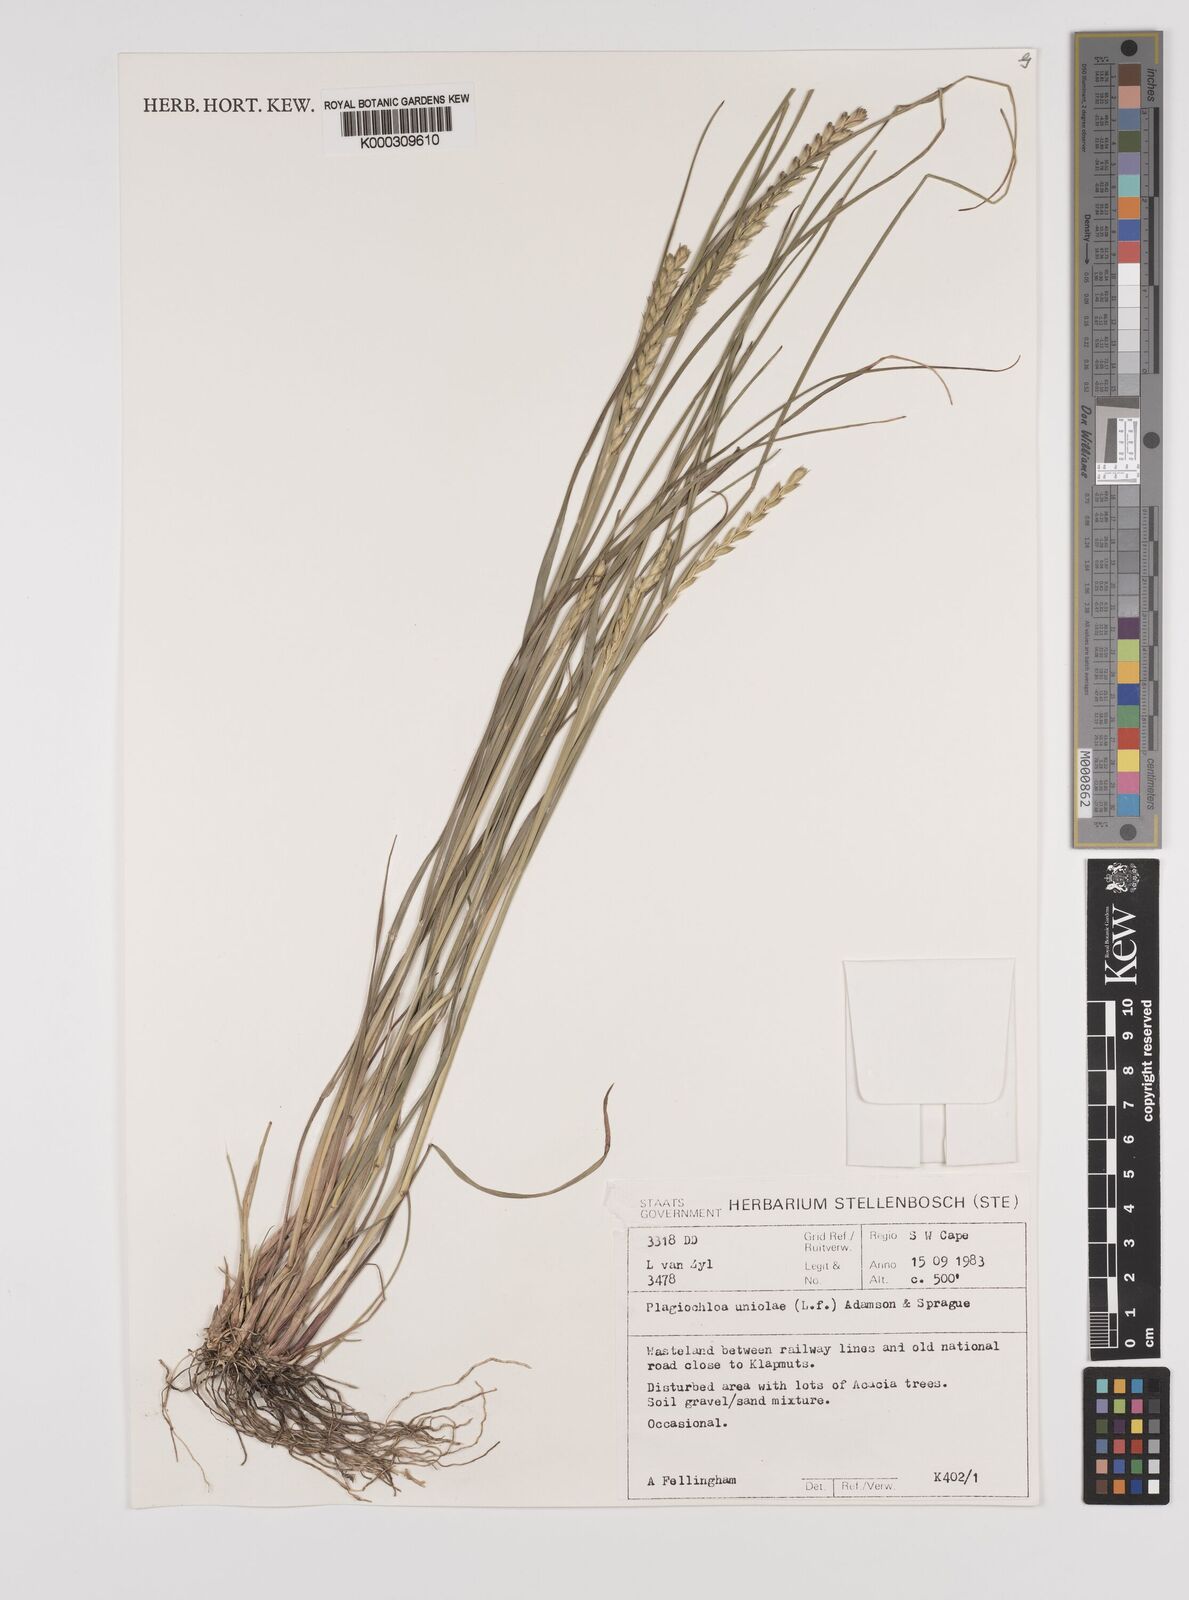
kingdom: Plantae
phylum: Tracheophyta
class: Liliopsida
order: Poales
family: Poaceae
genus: Tribolium
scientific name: Tribolium uniolae
